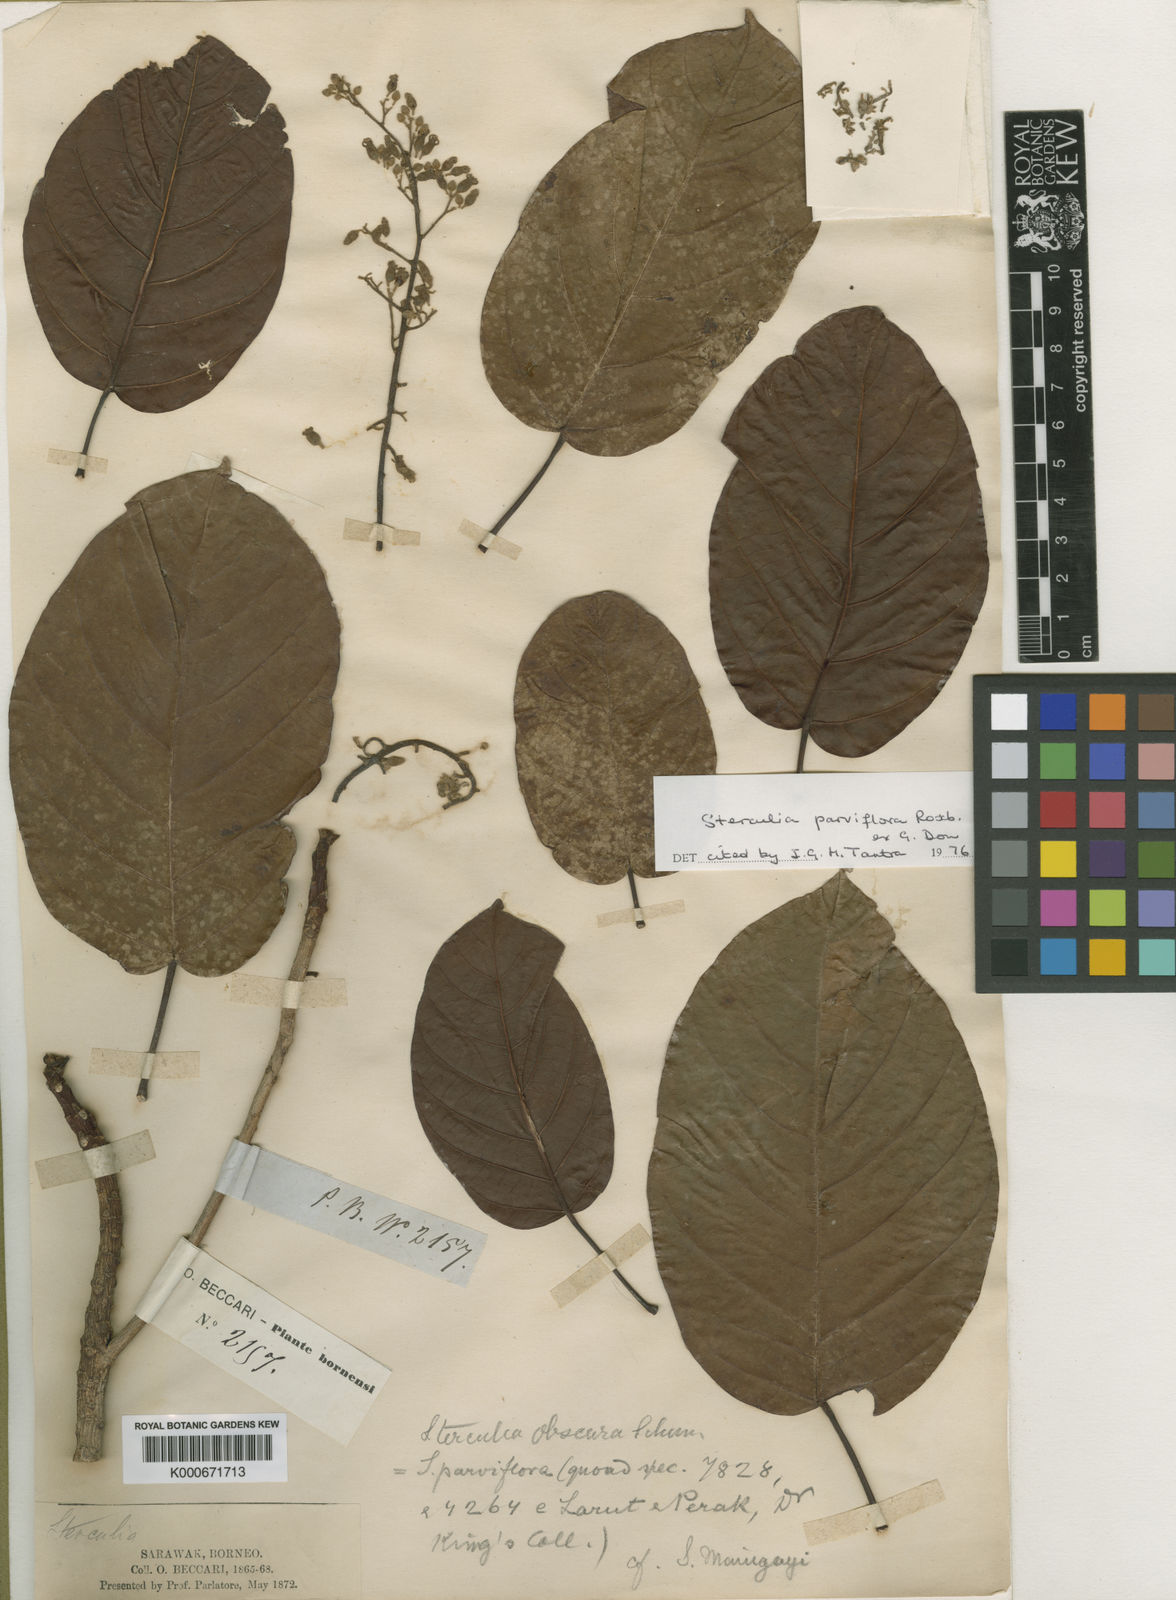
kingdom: Plantae
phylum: Tracheophyta
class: Magnoliopsida
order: Malvales
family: Malvaceae
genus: Sterculia
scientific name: Sterculia
